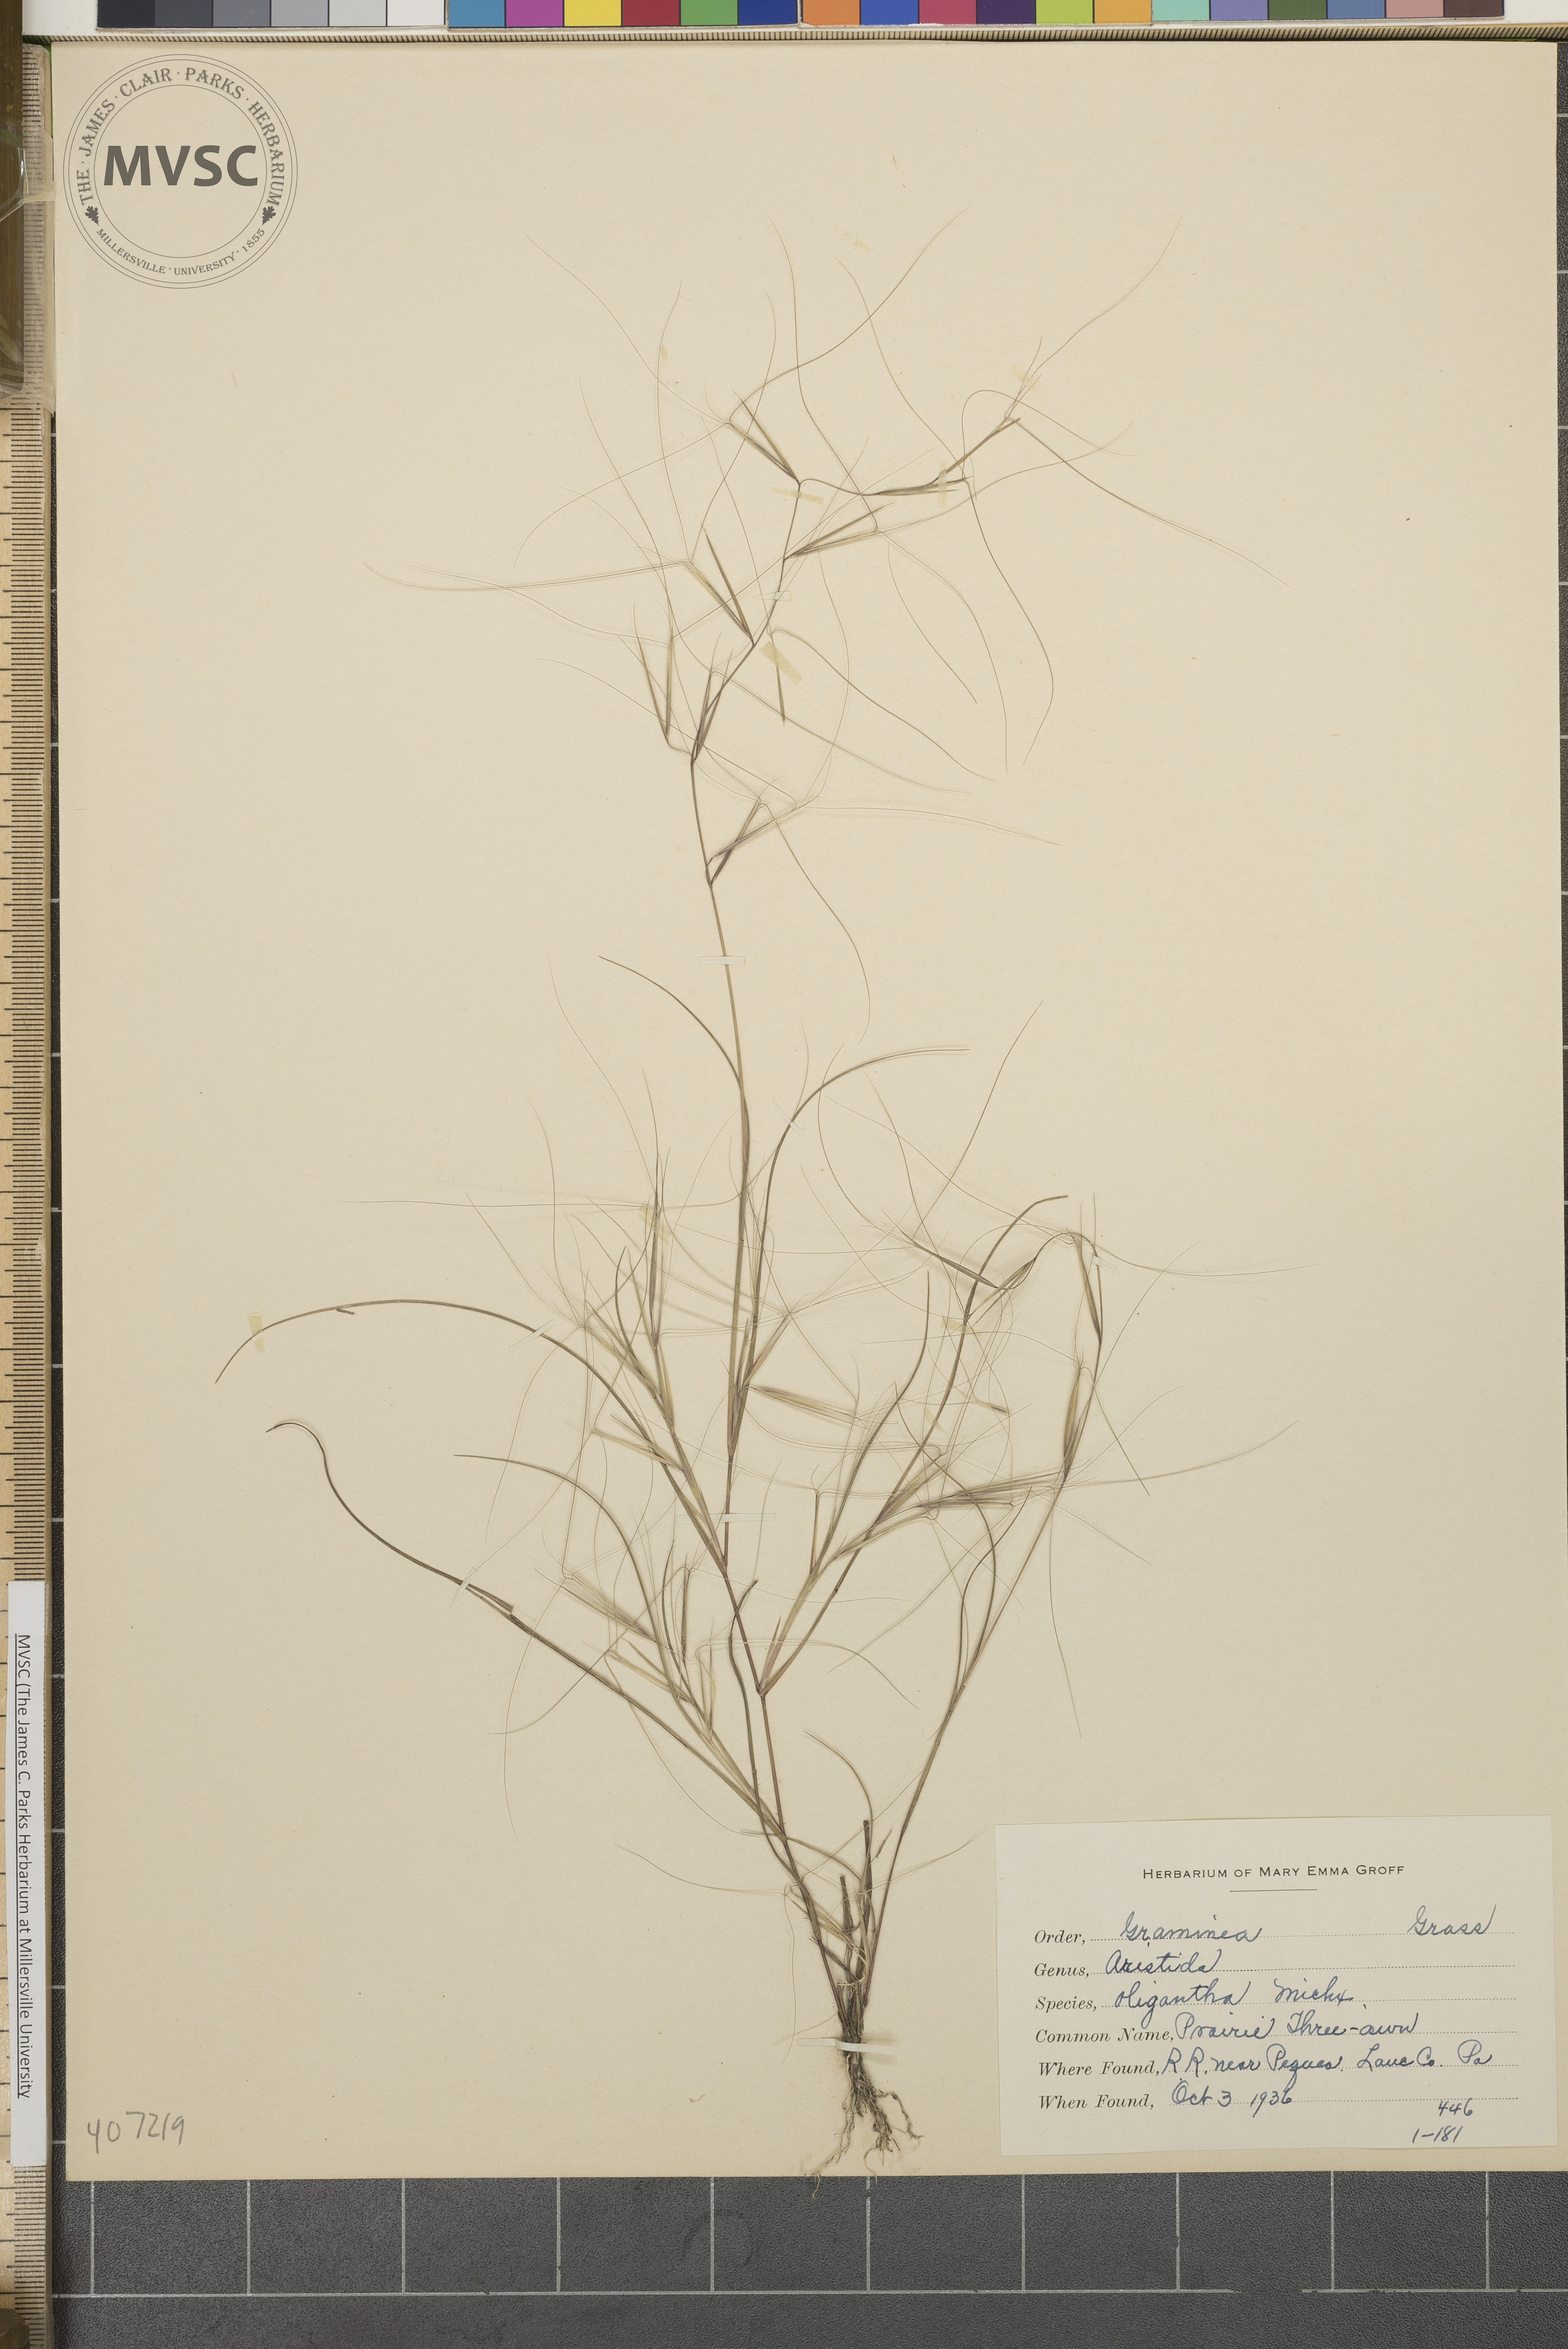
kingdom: Plantae
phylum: Tracheophyta
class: Liliopsida
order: Poales
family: Poaceae
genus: Aristida
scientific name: Aristida oligantha
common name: Few-flowered aristida
